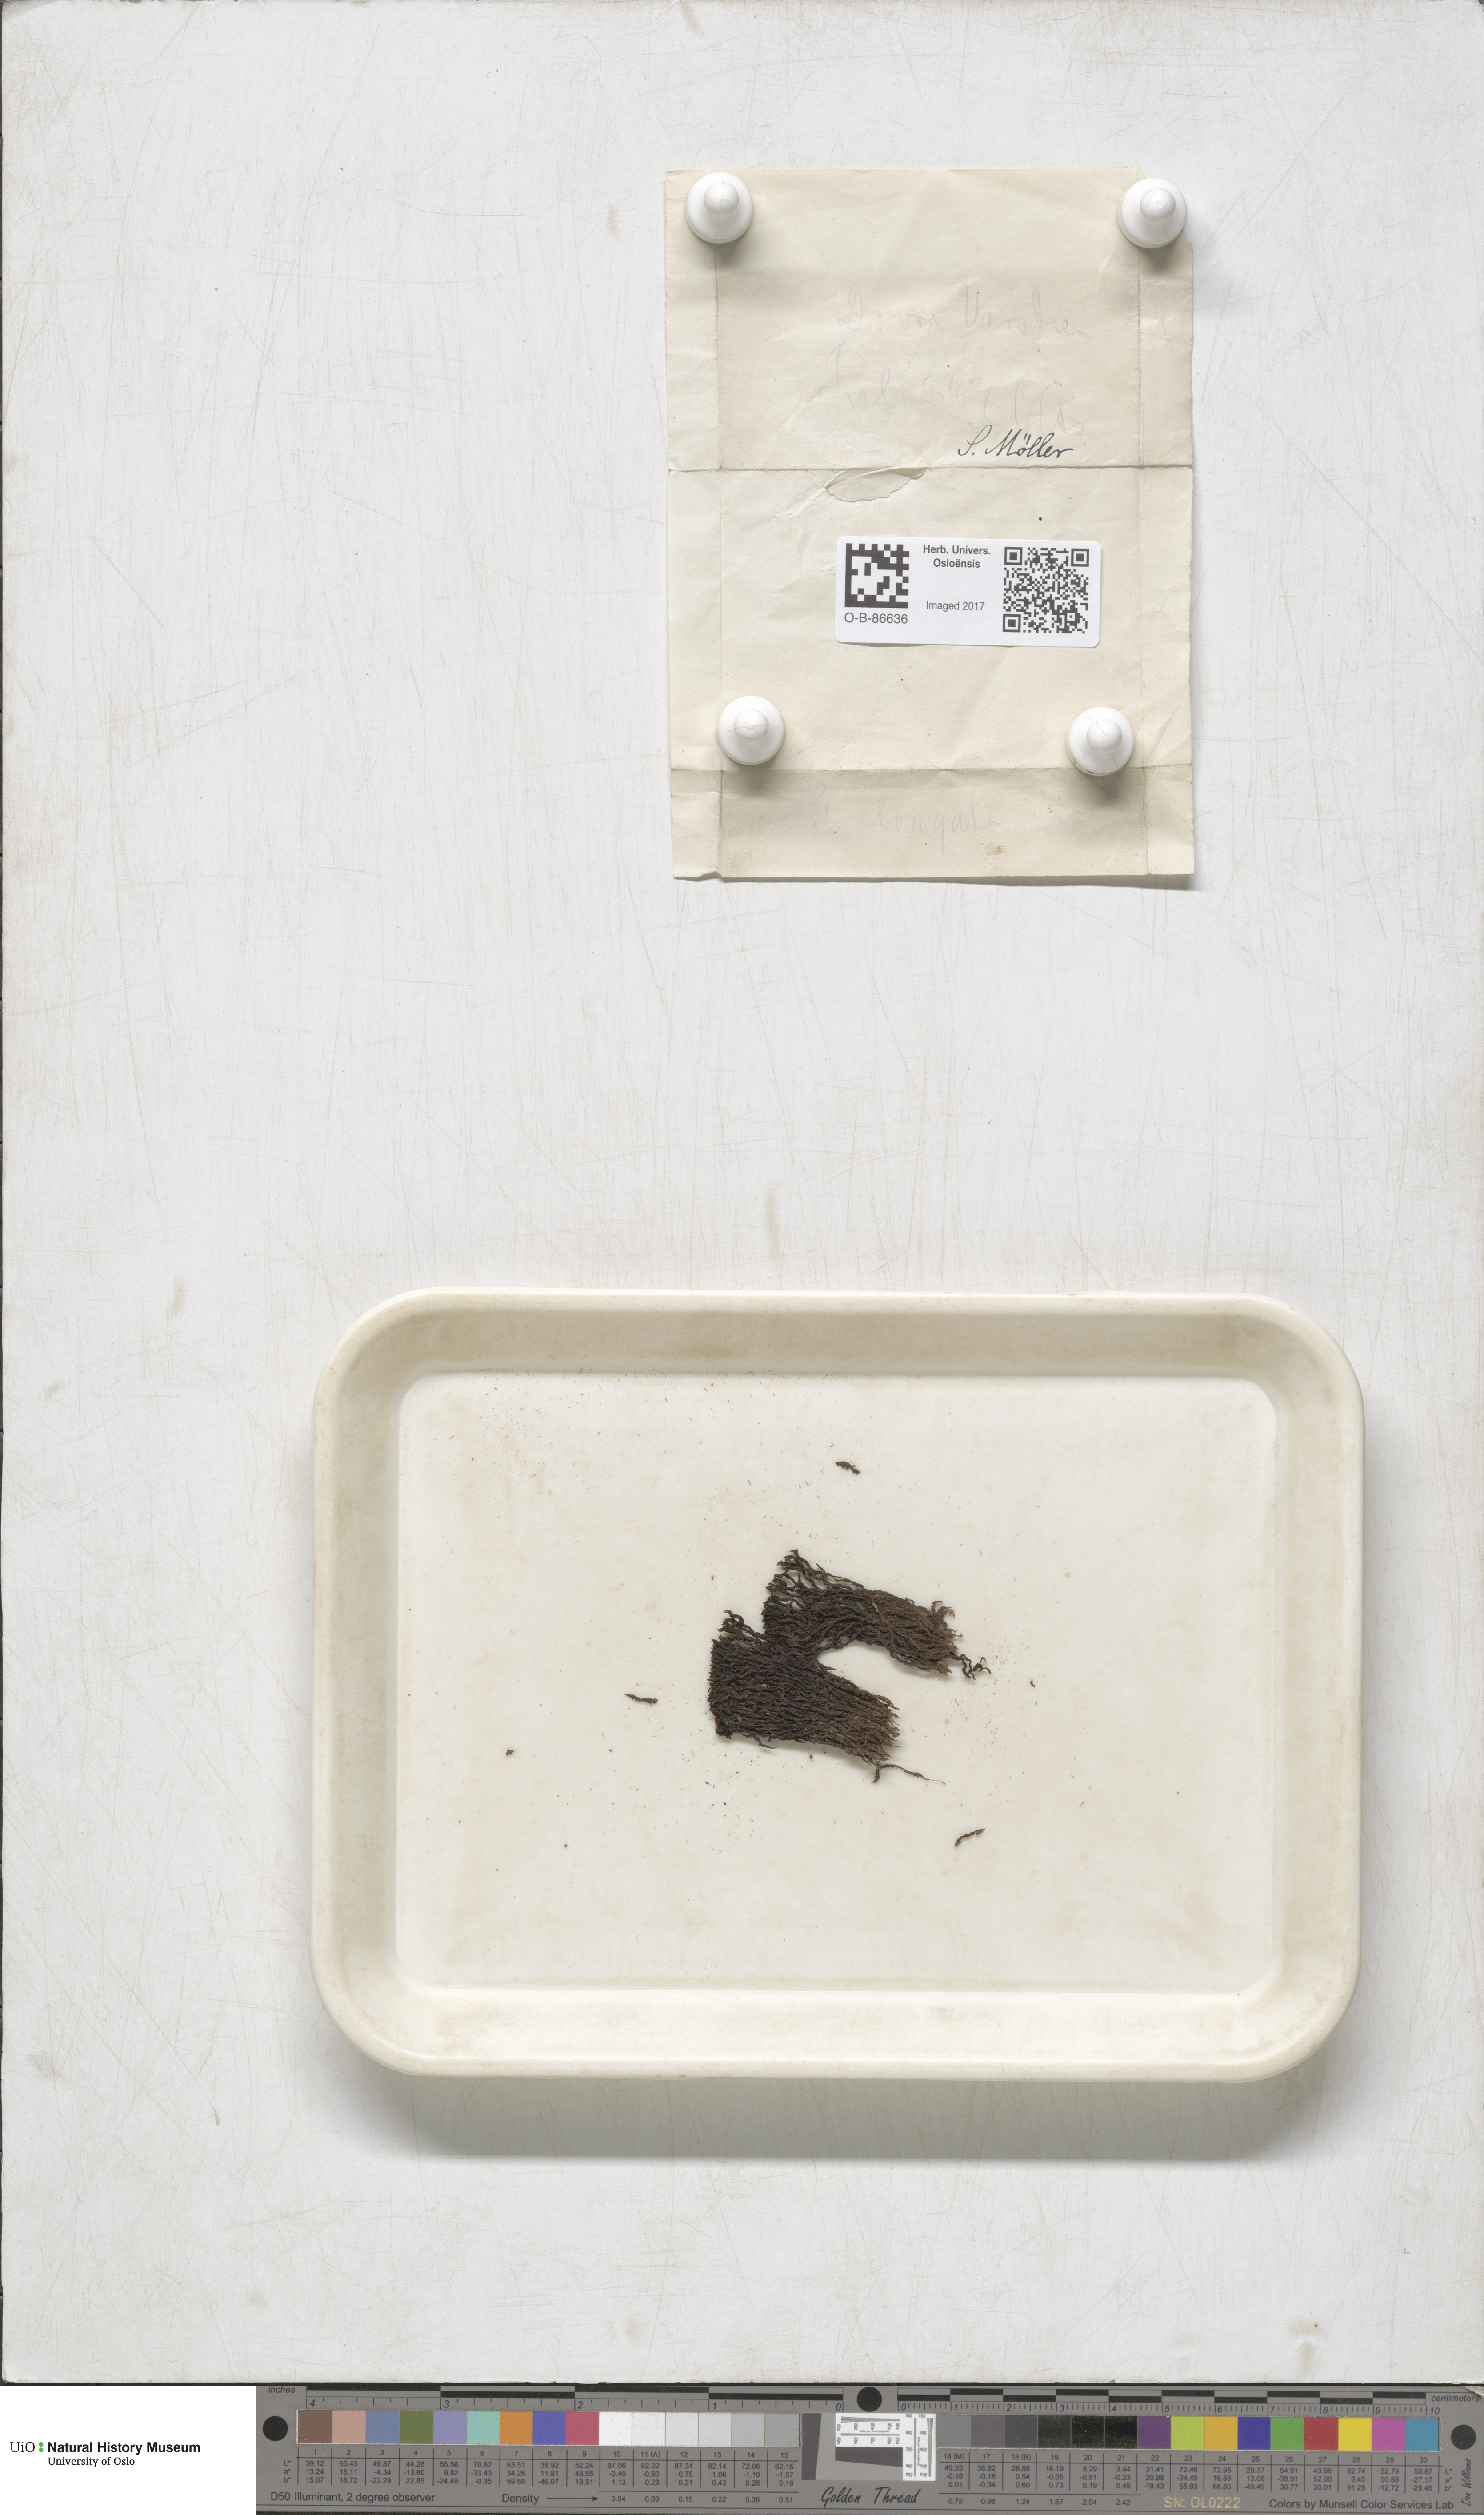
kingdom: Plantae
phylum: Bryophyta
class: Bryopsida
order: Grimmiales
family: Grimmiaceae
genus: Grimmia
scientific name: Grimmia elongata
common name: Brown grimmia
